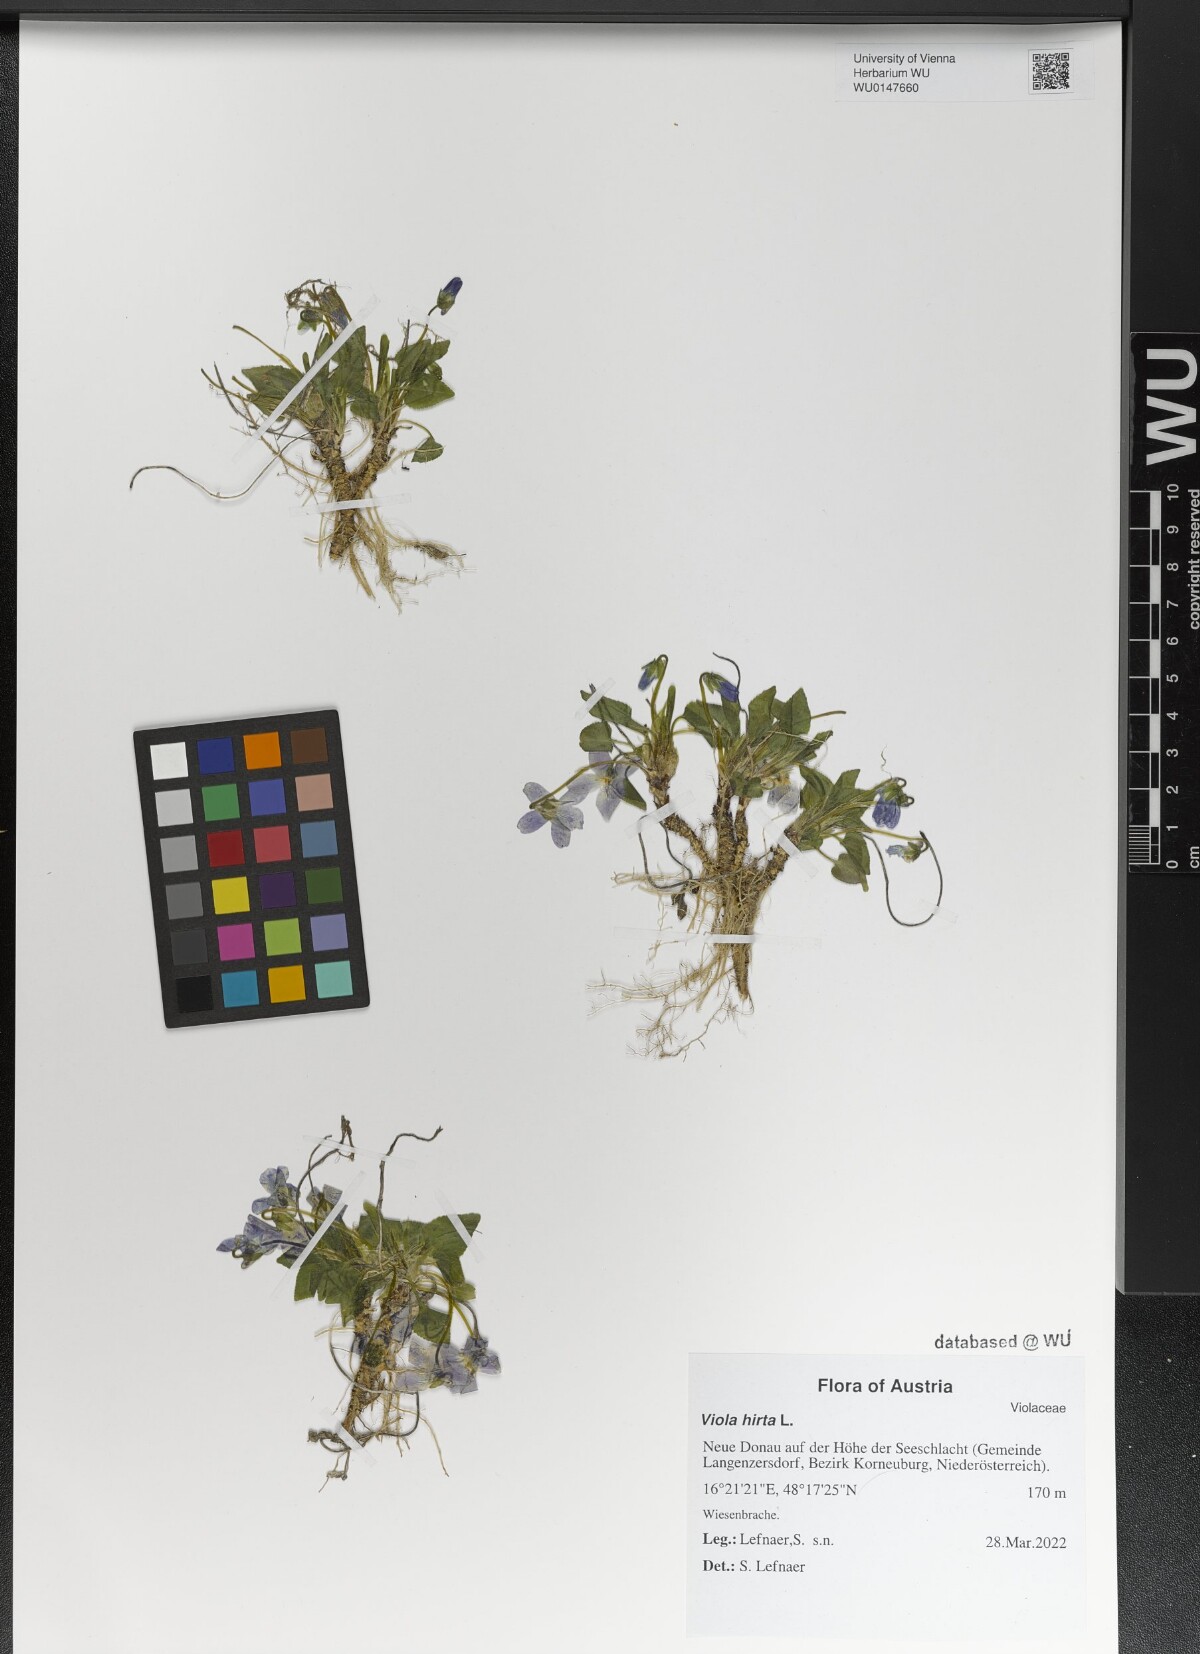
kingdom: Plantae
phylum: Tracheophyta
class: Magnoliopsida
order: Malpighiales
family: Violaceae
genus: Viola
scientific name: Viola hirta
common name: Hairy violet
